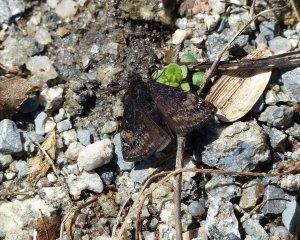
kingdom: Animalia
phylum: Arthropoda
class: Insecta
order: Lepidoptera
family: Hesperiidae
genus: Gesta
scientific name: Gesta
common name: Columbine Duskywing
